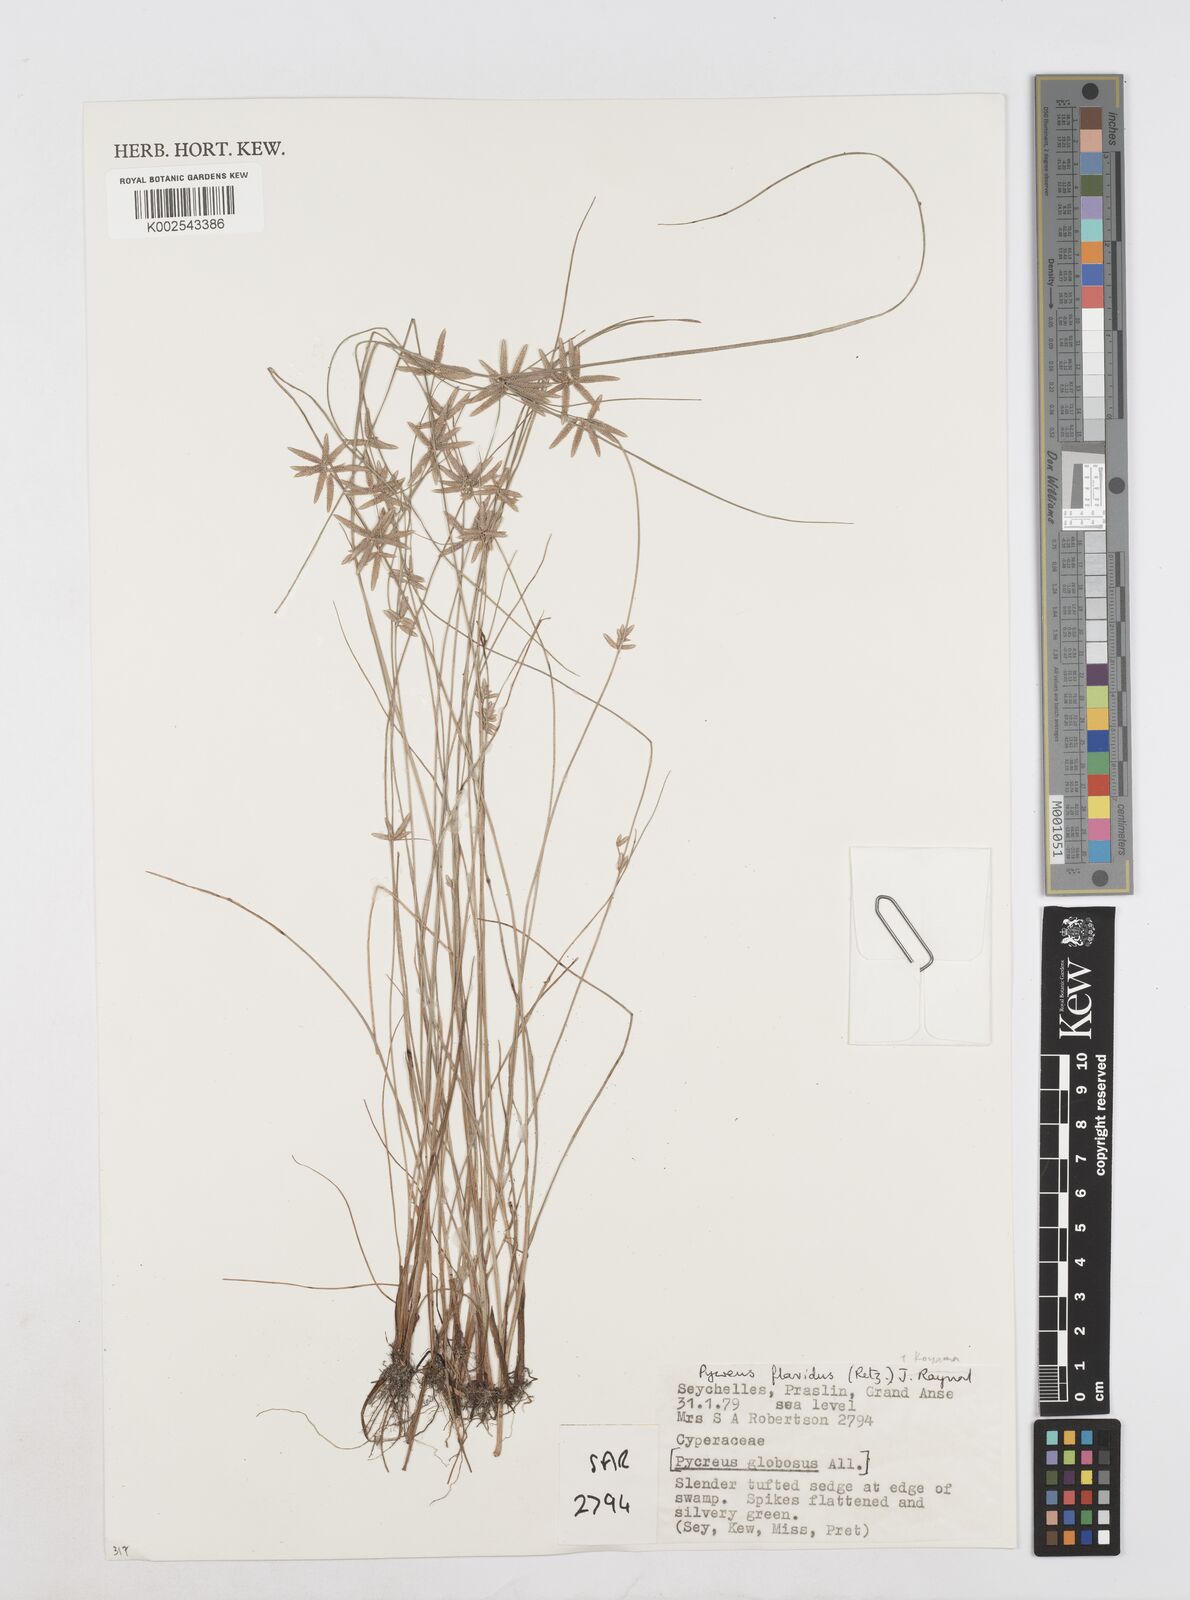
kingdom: Plantae
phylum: Tracheophyta
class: Liliopsida
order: Poales
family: Cyperaceae
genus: Cyperus
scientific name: Cyperus flavidus
